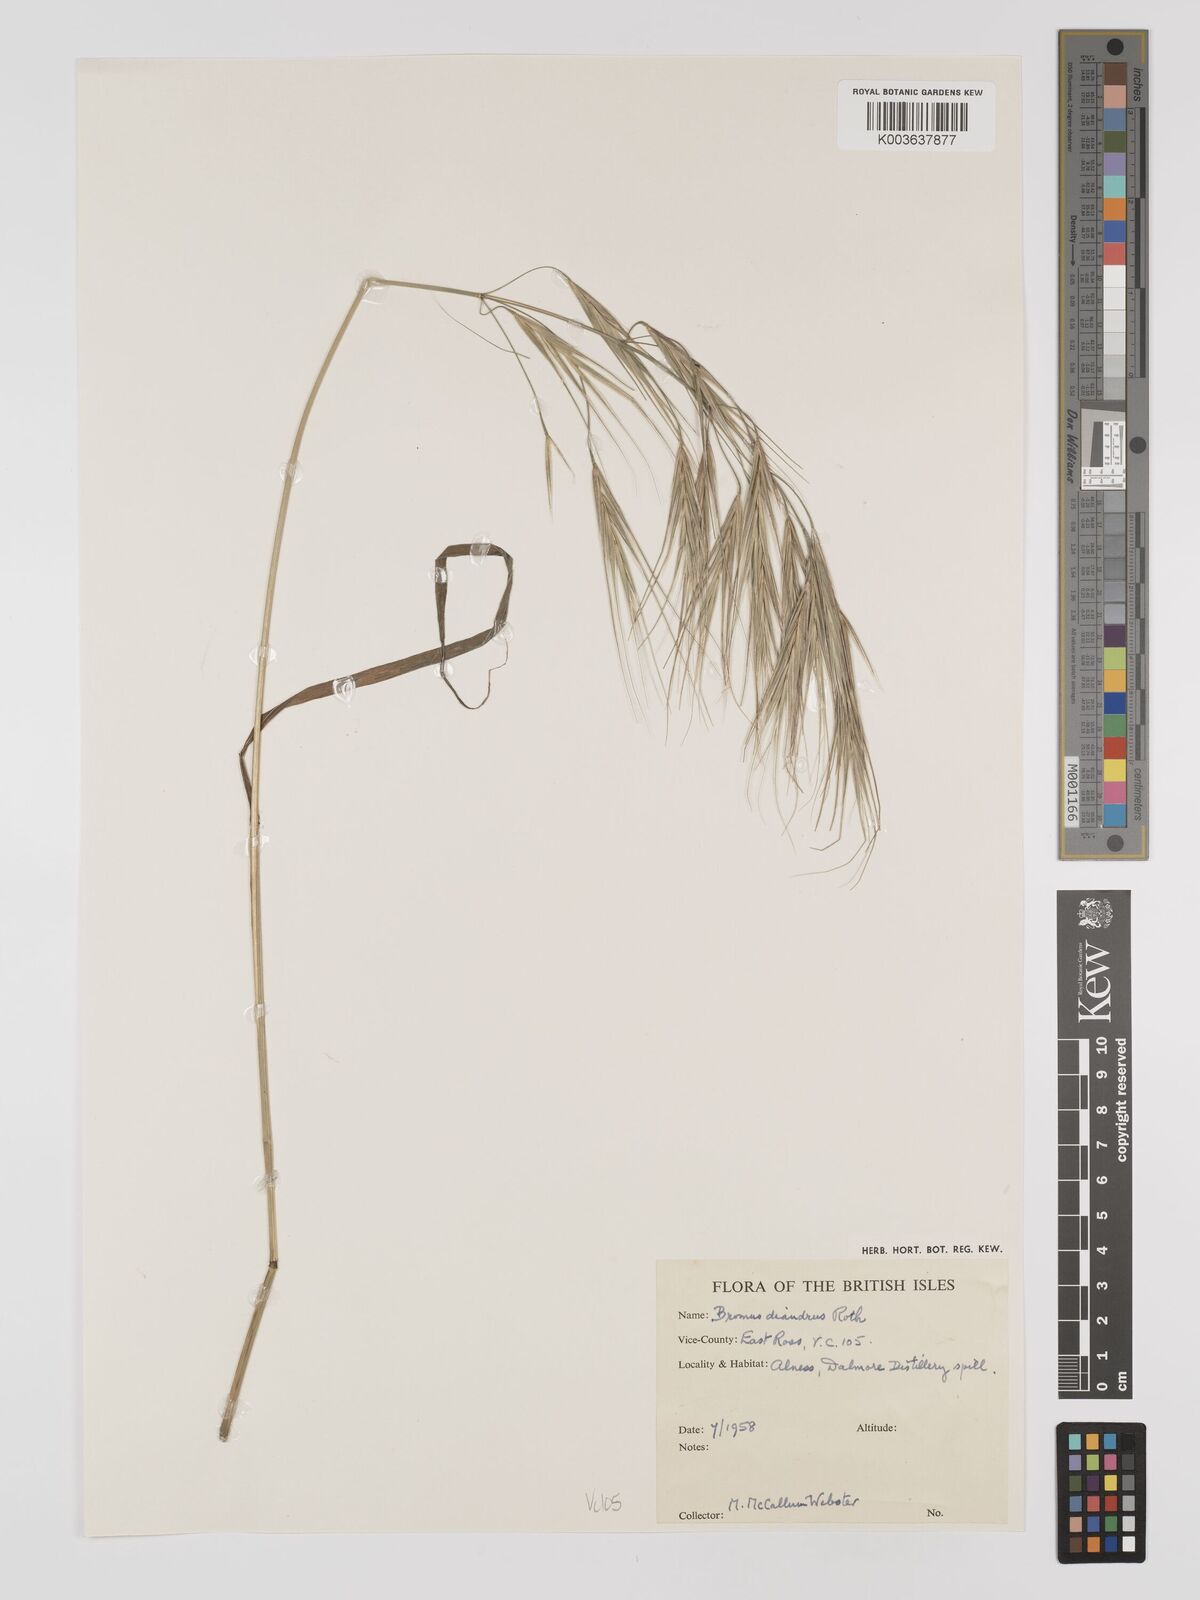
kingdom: Plantae
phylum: Tracheophyta
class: Liliopsida
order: Poales
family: Poaceae
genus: Bromus
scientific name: Bromus
